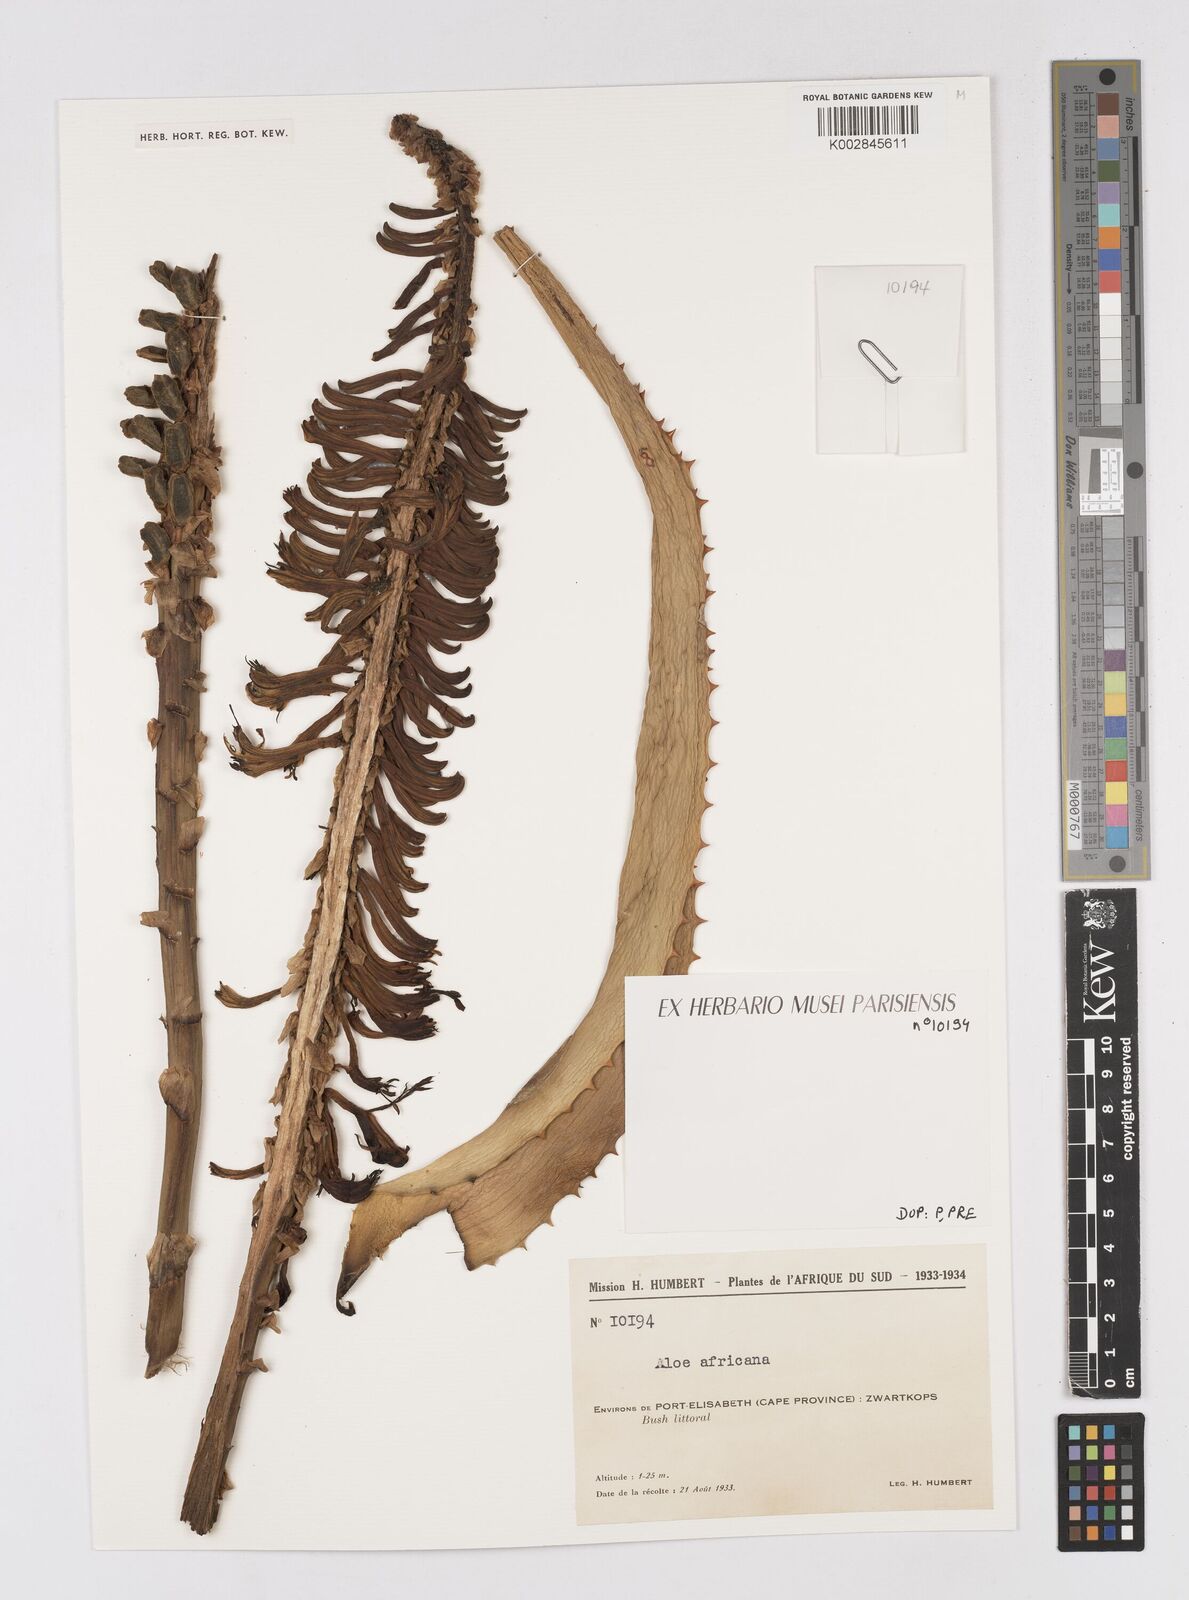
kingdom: Plantae
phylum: Tracheophyta
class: Liliopsida
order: Asparagales
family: Asphodelaceae
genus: Aloe
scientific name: Aloe africana
